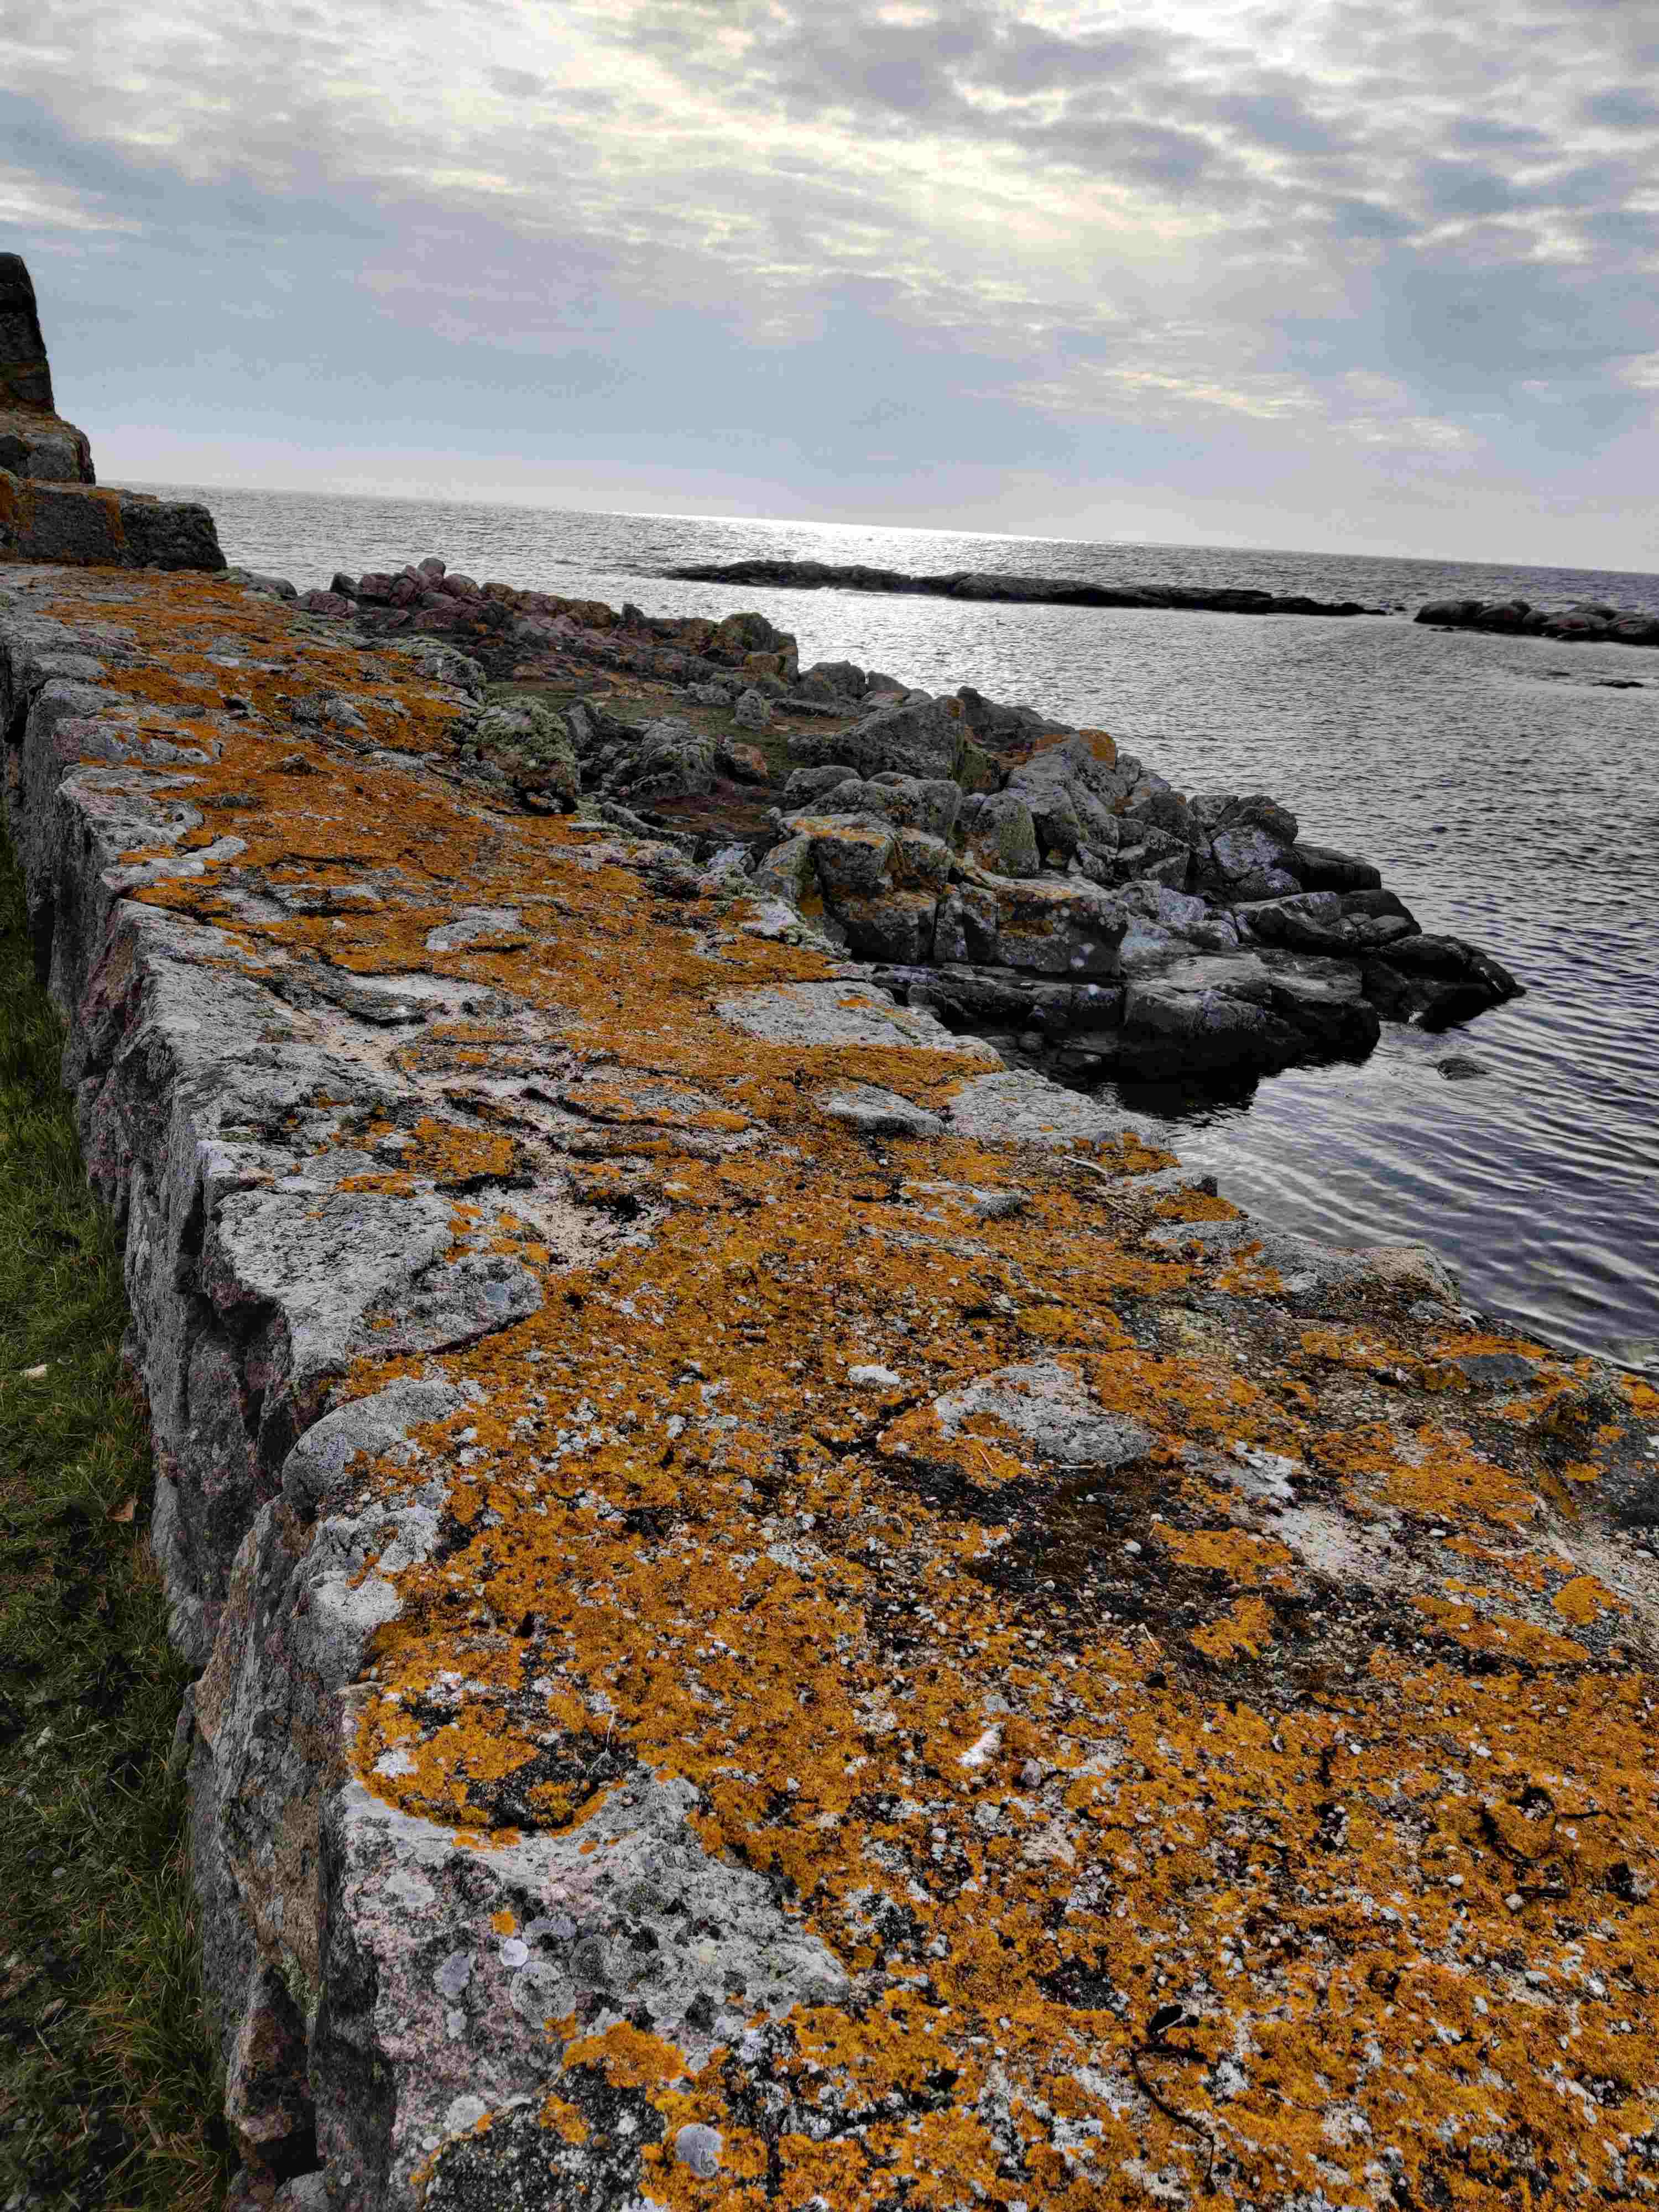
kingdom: Fungi
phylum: Ascomycota
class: Lecanoromycetes
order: Teloschistales
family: Teloschistaceae
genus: Xanthoria
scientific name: Xanthoria aureola
